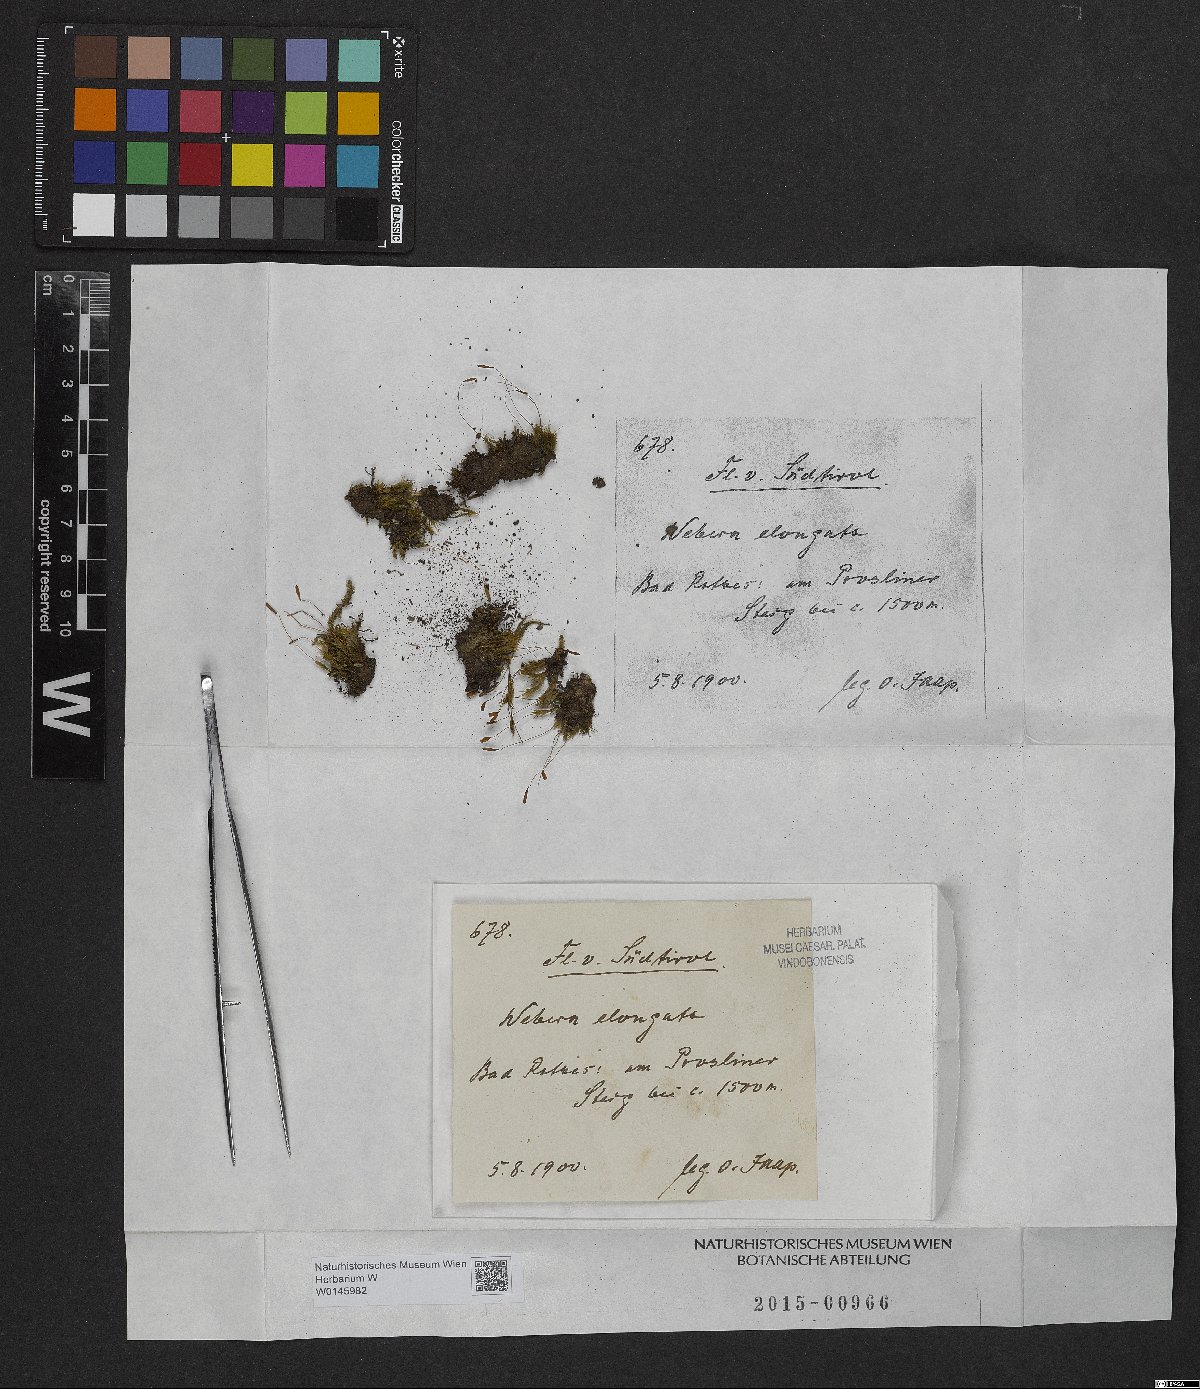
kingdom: Plantae
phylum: Bryophyta
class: Bryopsida
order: Bryales
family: Mniaceae
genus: Pohlia
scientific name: Pohlia elongata
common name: Long-fruited thread-moss
